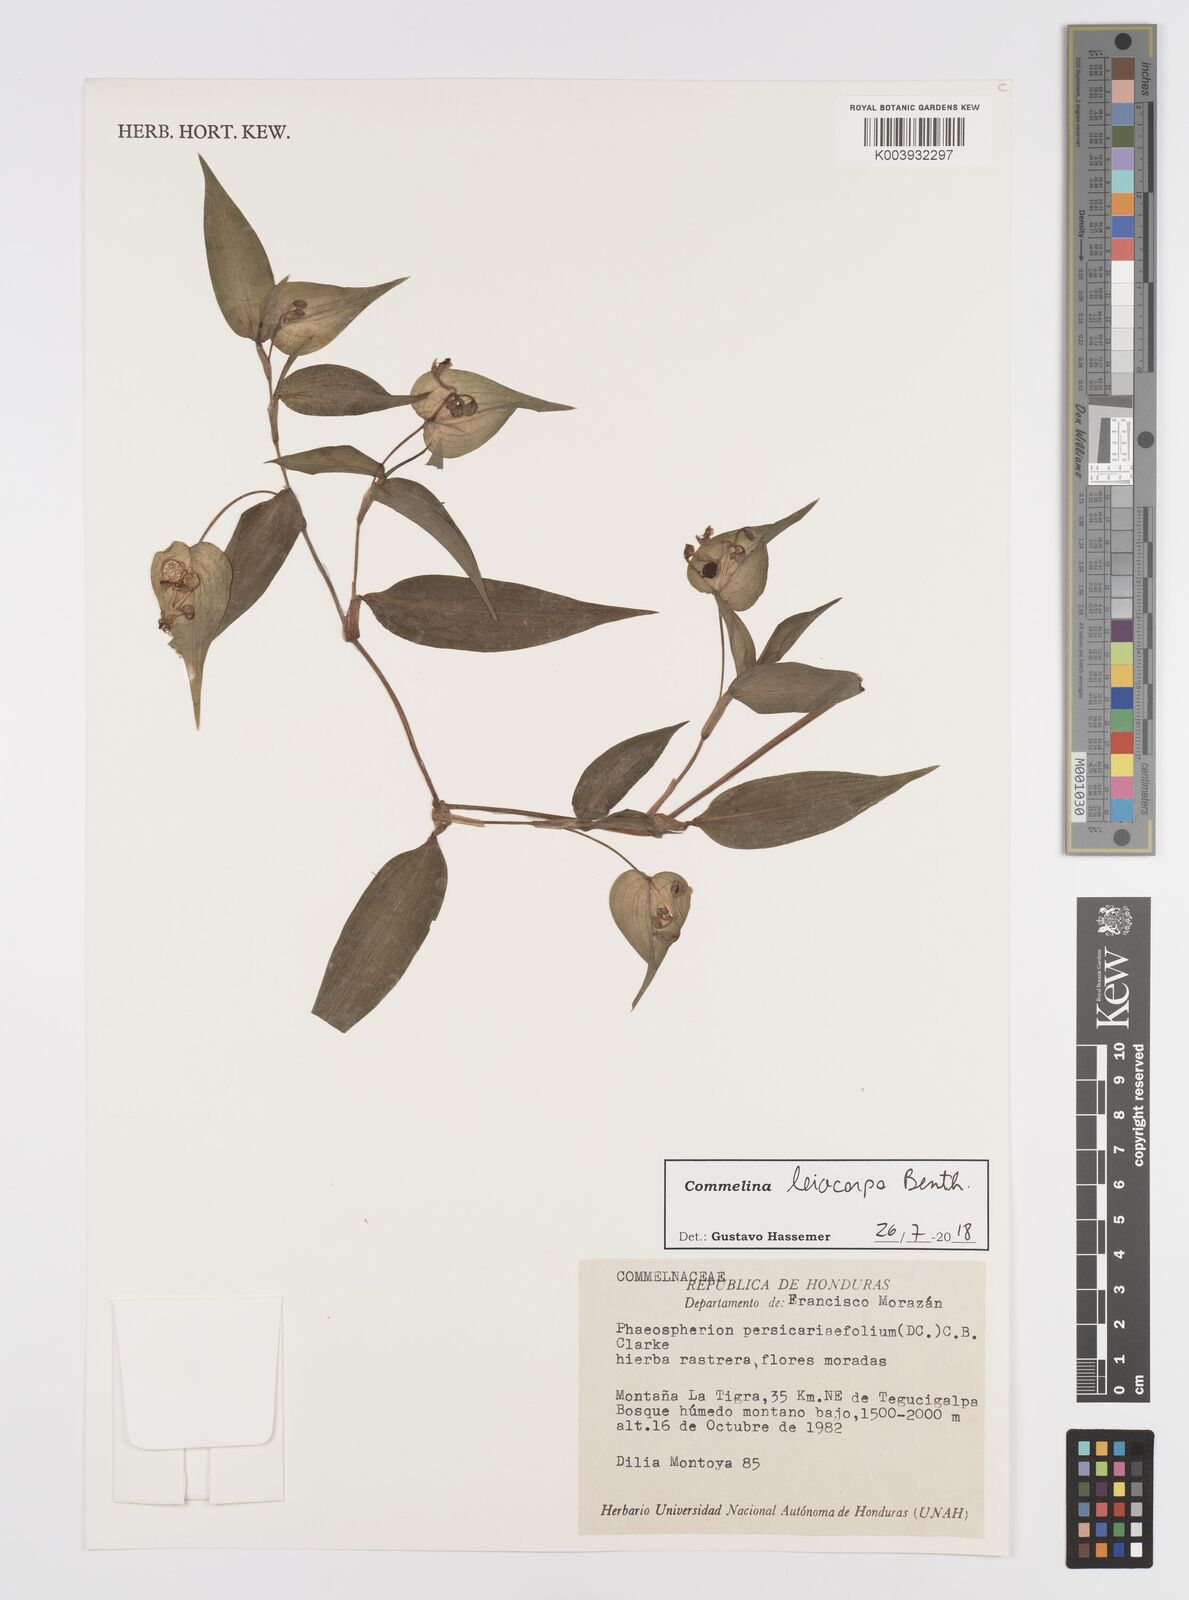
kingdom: Plantae
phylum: Tracheophyta
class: Liliopsida
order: Commelinales
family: Commelinaceae
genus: Commelina
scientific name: Commelina leiocarpa
